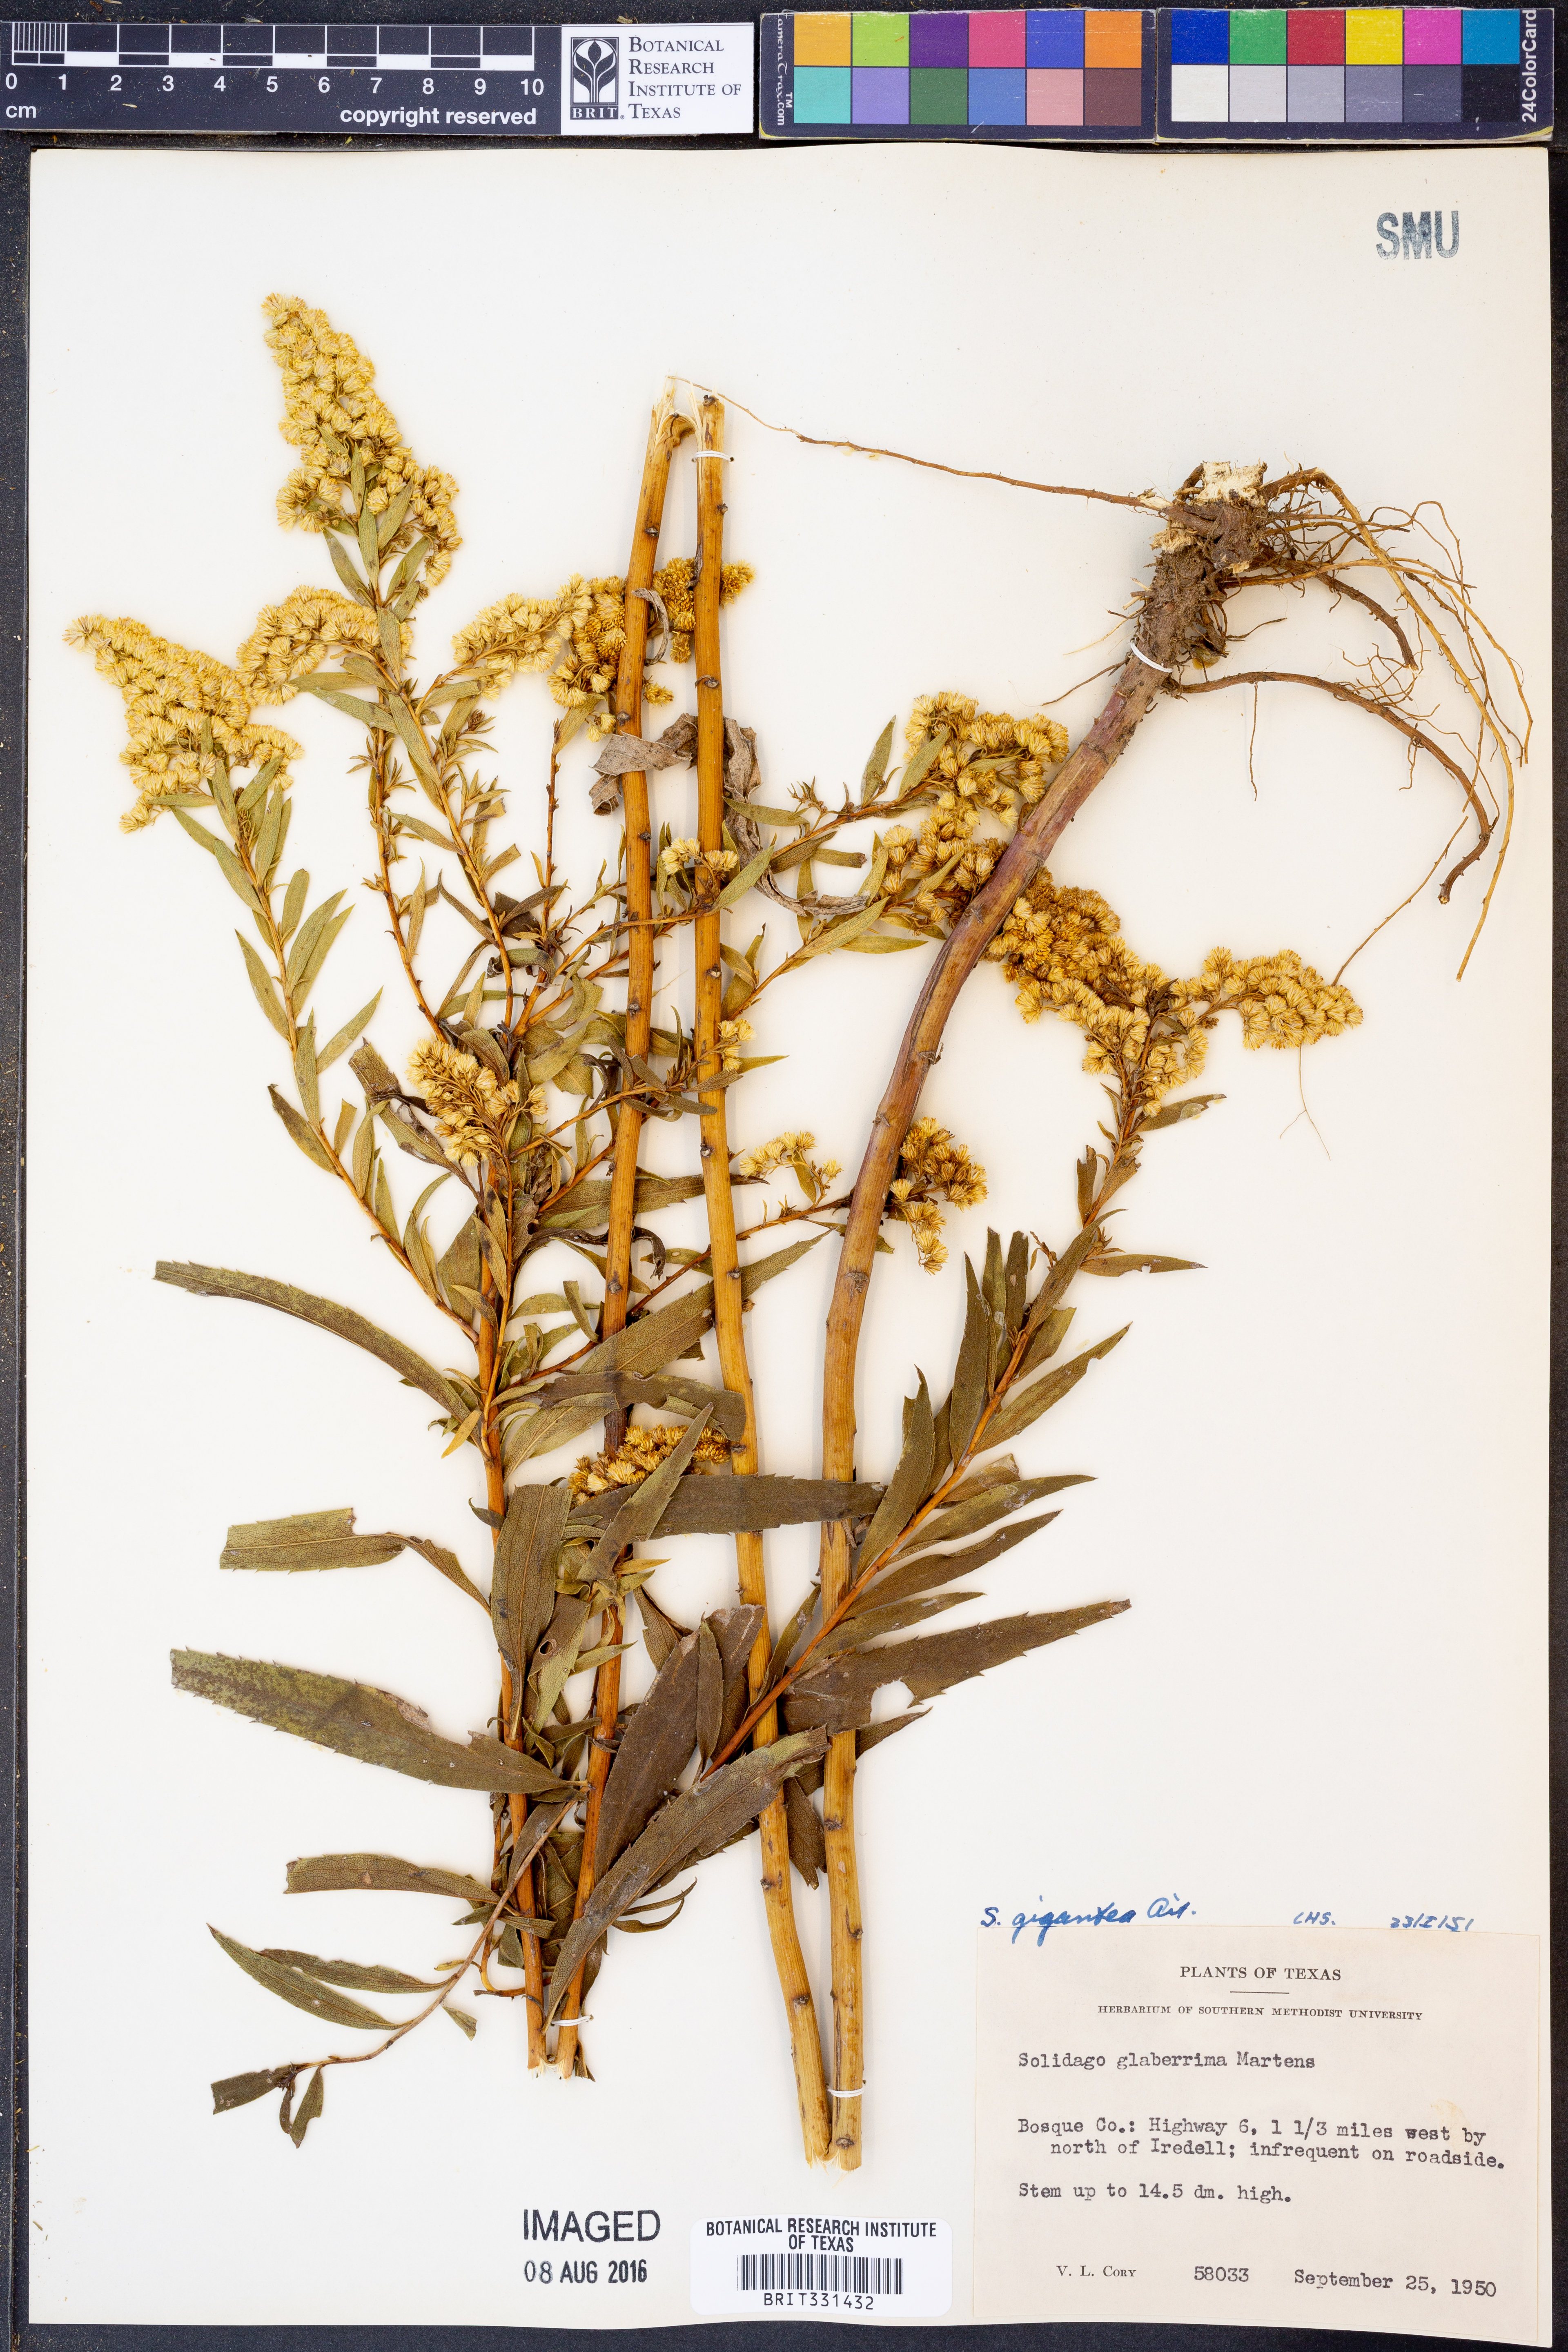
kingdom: Plantae
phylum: Tracheophyta
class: Magnoliopsida
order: Asterales
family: Asteraceae
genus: Solidago
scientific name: Solidago gigantea
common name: Giant goldenrod
